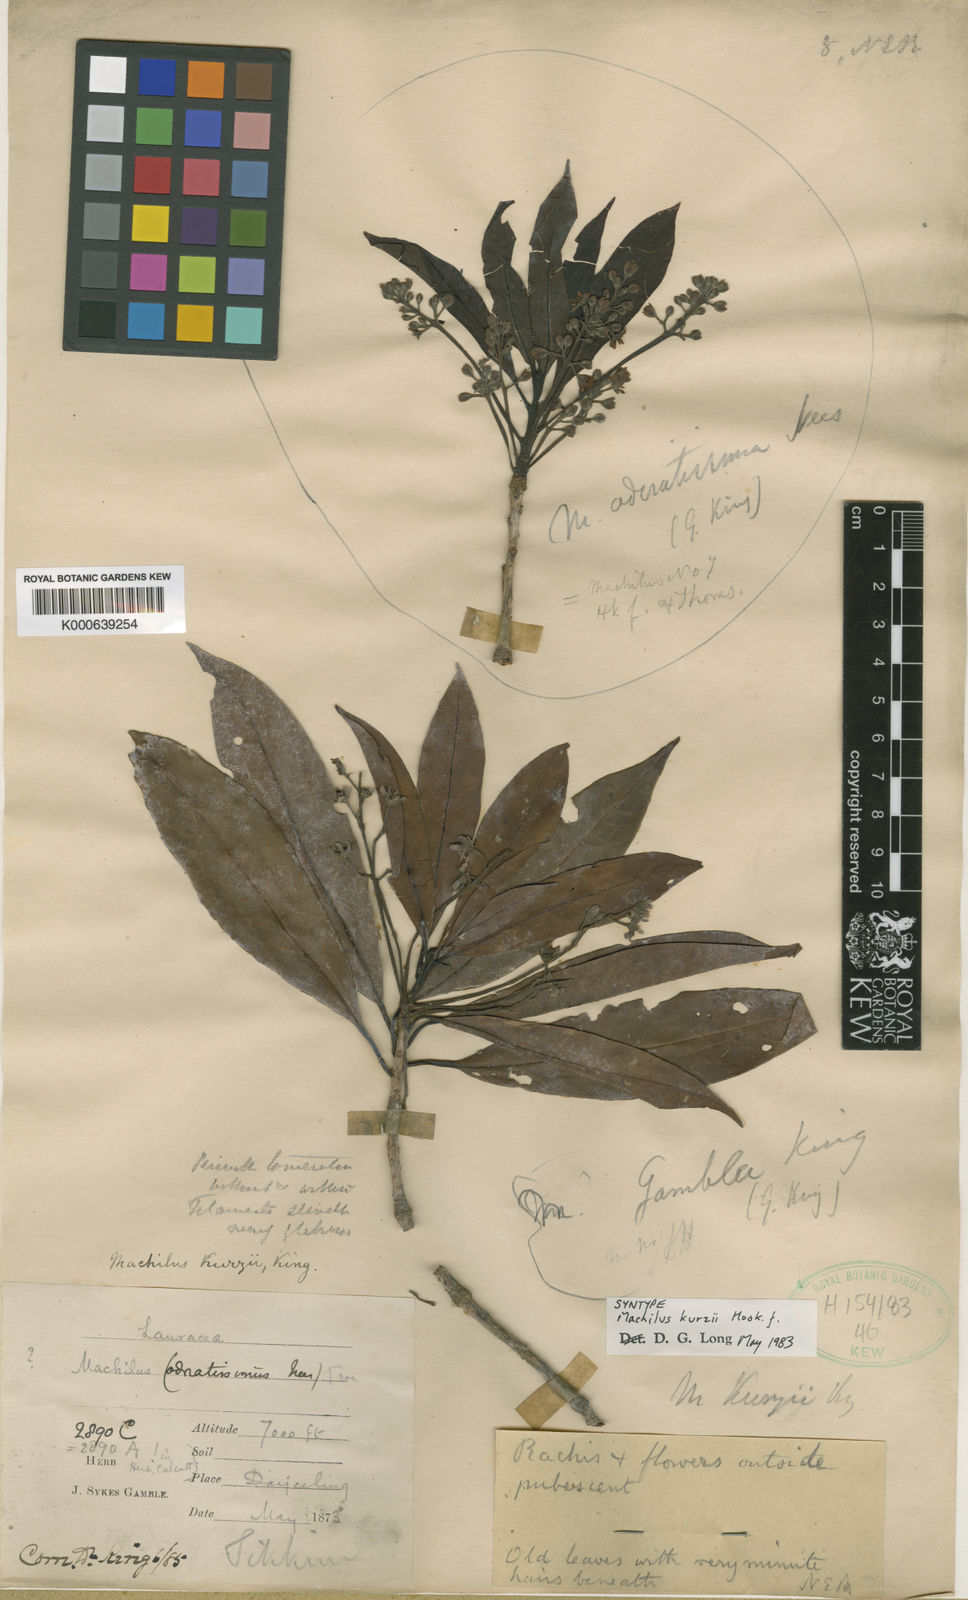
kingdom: Plantae
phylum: Tracheophyta
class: Magnoliopsida
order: Laurales
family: Lauraceae
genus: Machilus
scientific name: Machilus kurzii
